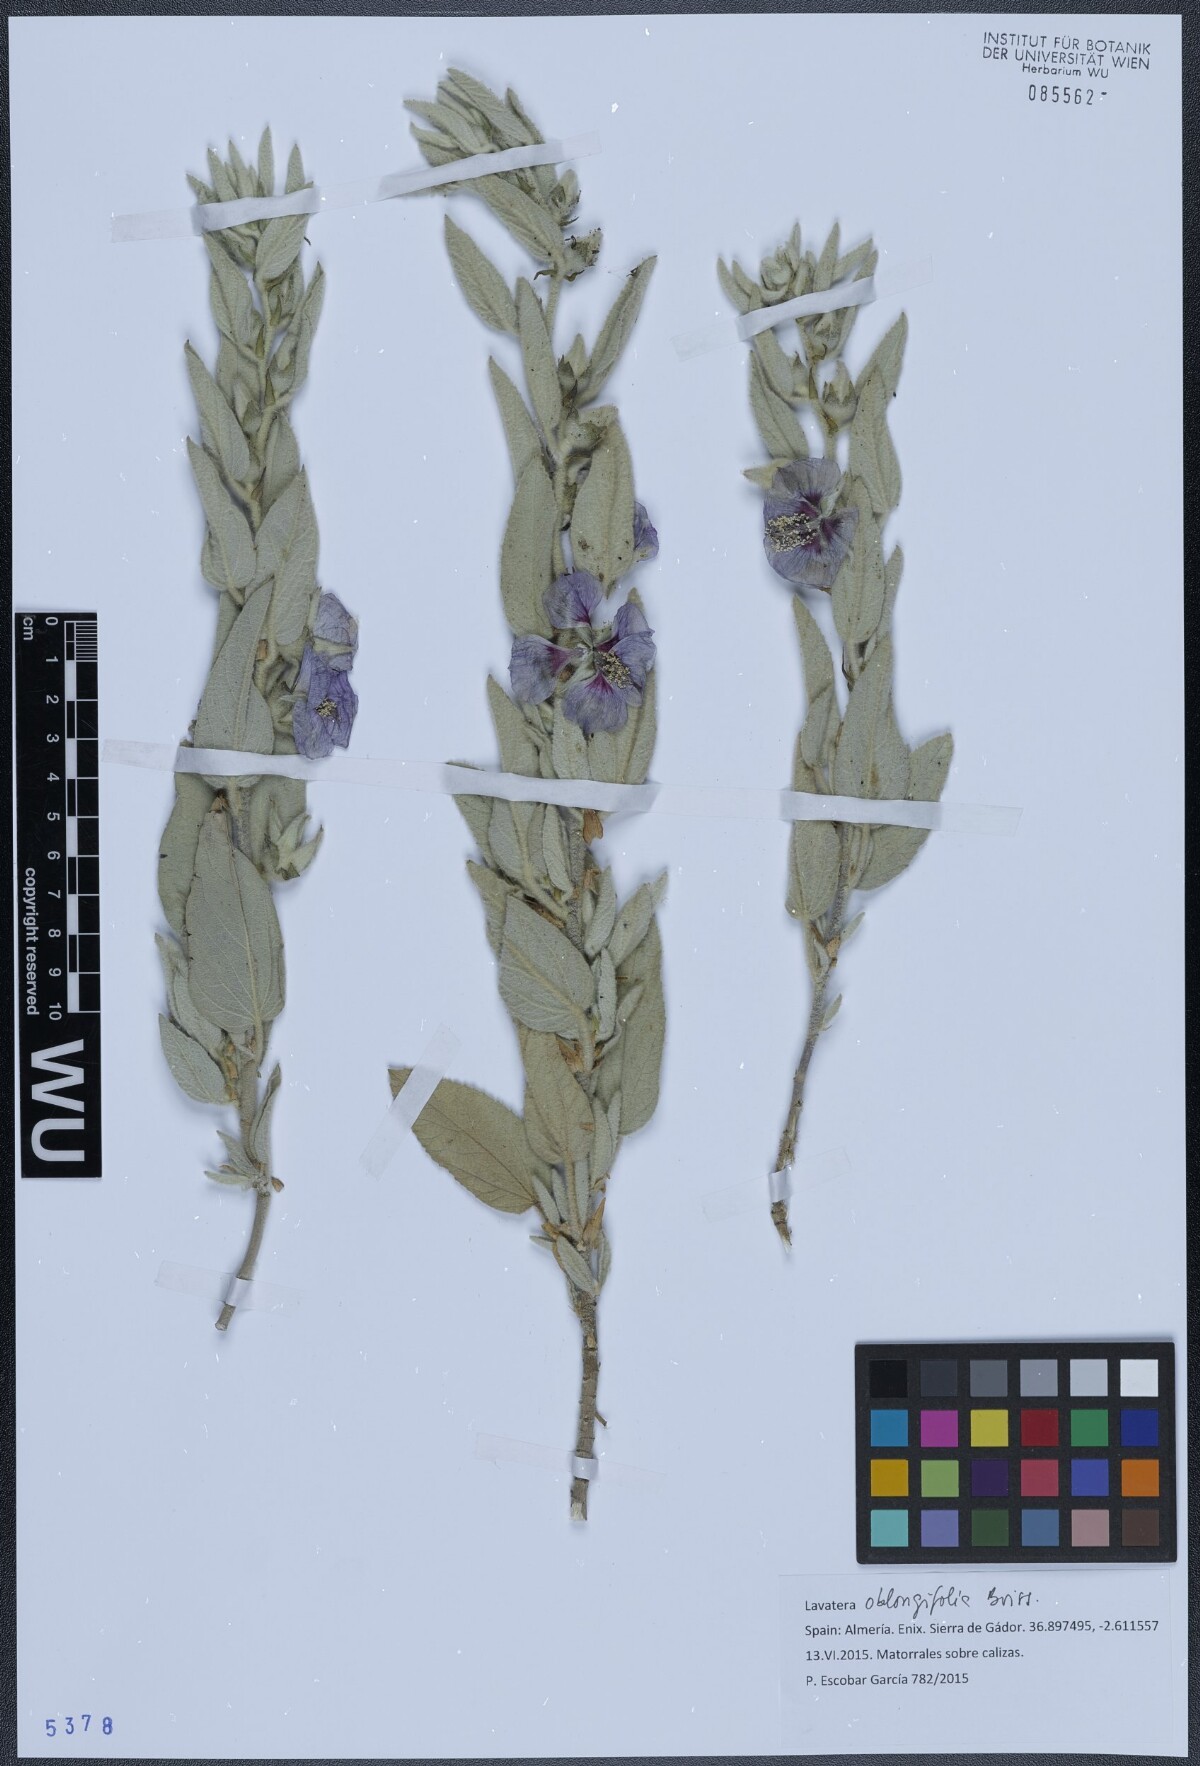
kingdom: Plantae
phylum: Tracheophyta
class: Magnoliopsida
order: Malvales
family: Malvaceae
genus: Malva
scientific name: Malva oblongifolia
